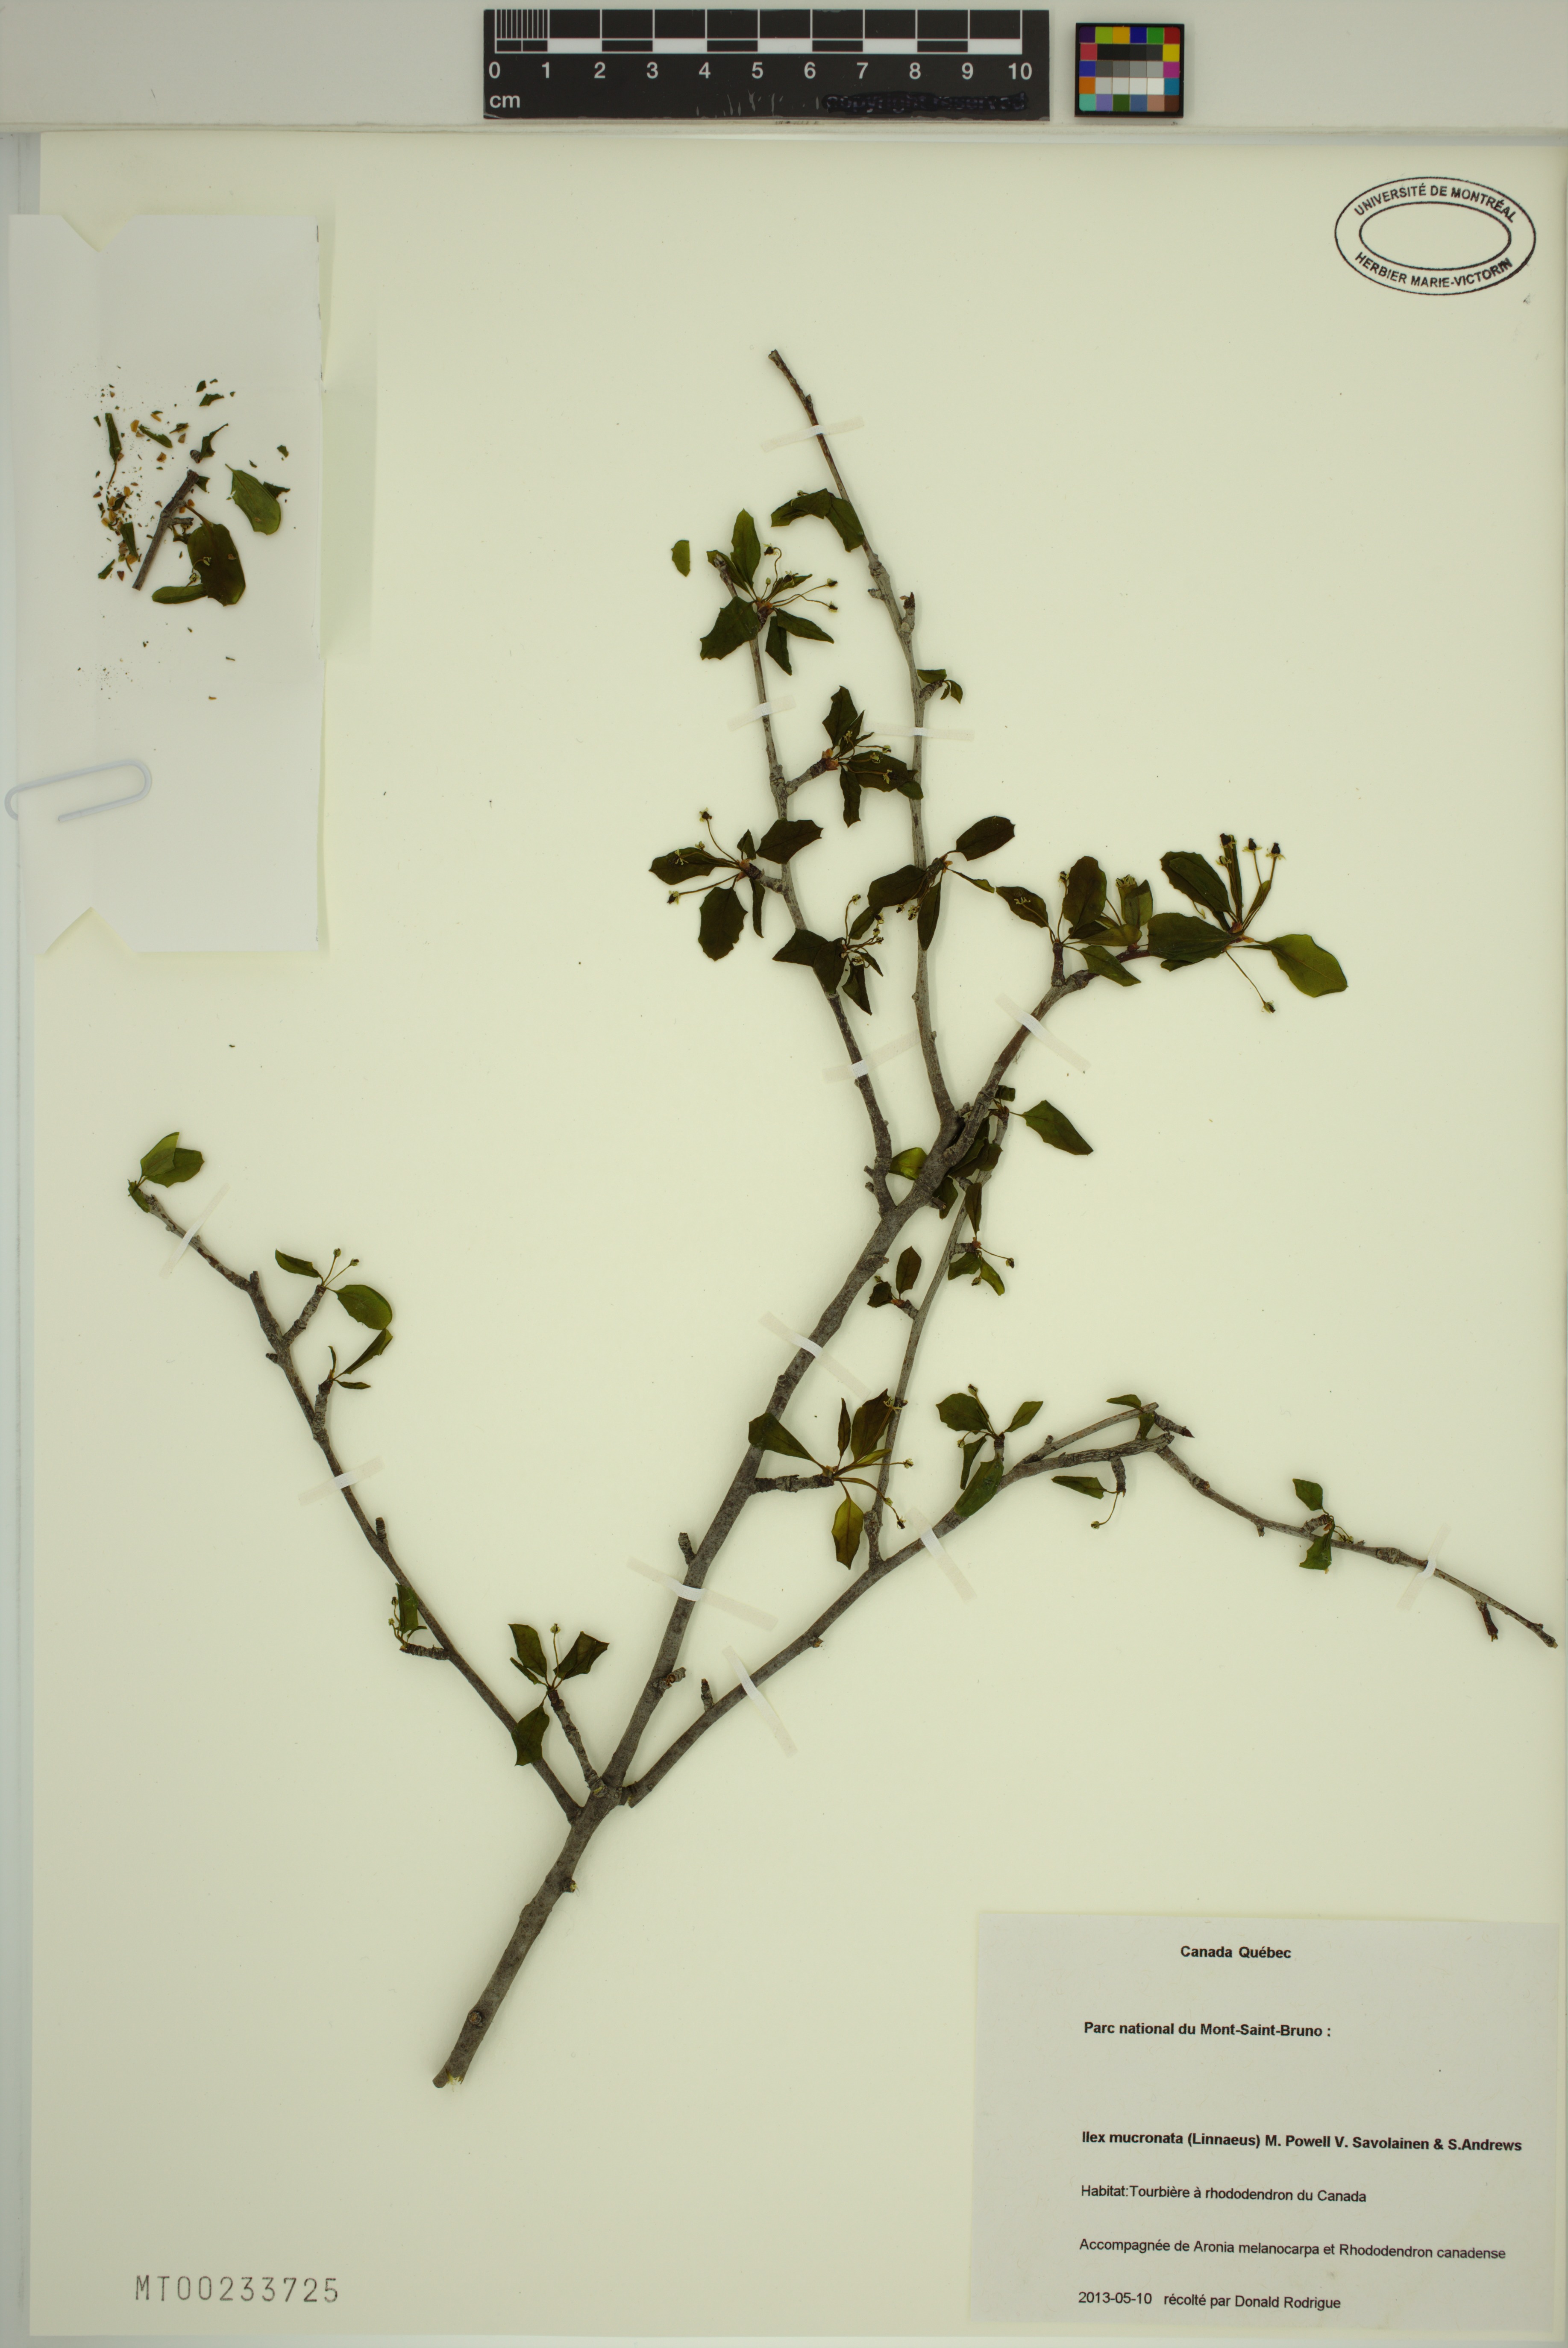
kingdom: Plantae
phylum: Tracheophyta
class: Magnoliopsida
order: Aquifoliales
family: Aquifoliaceae
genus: Ilex
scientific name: Ilex mucronata
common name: Catberry
